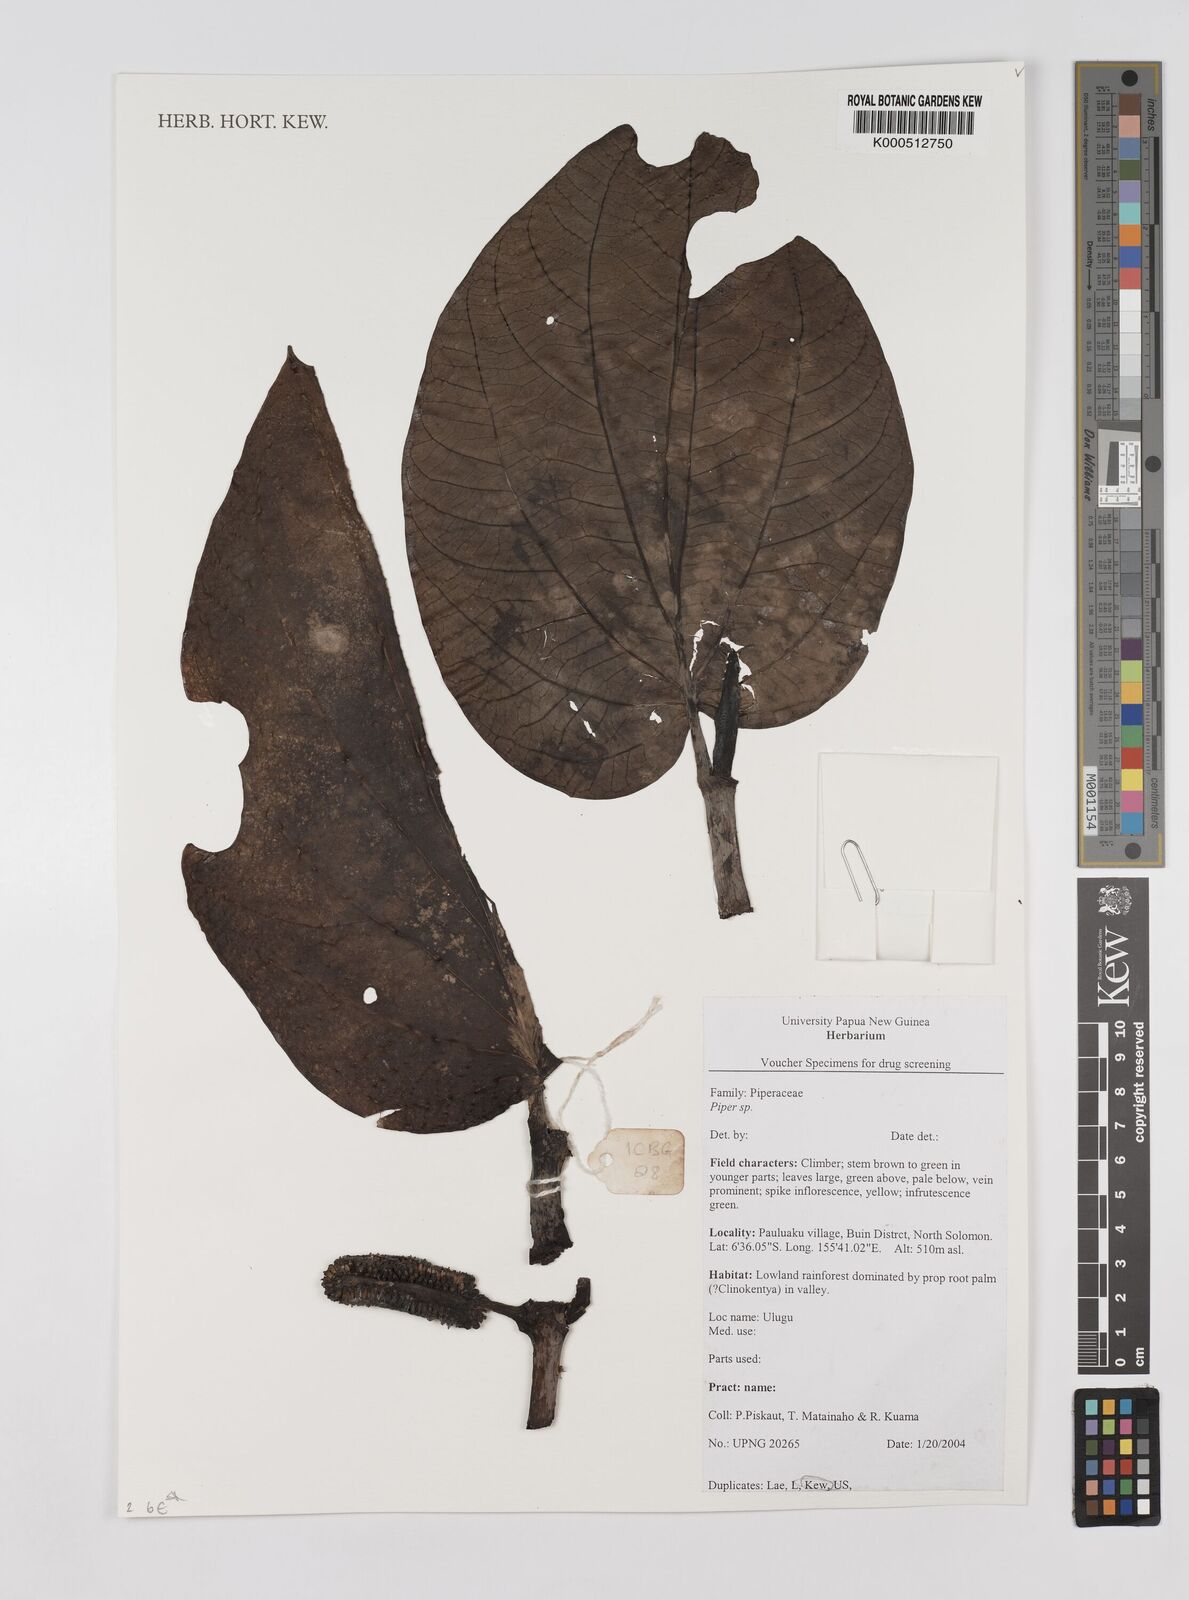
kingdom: Plantae
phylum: Tracheophyta
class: Magnoliopsida
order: Piperales
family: Piperaceae
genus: Piper
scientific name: Piper
